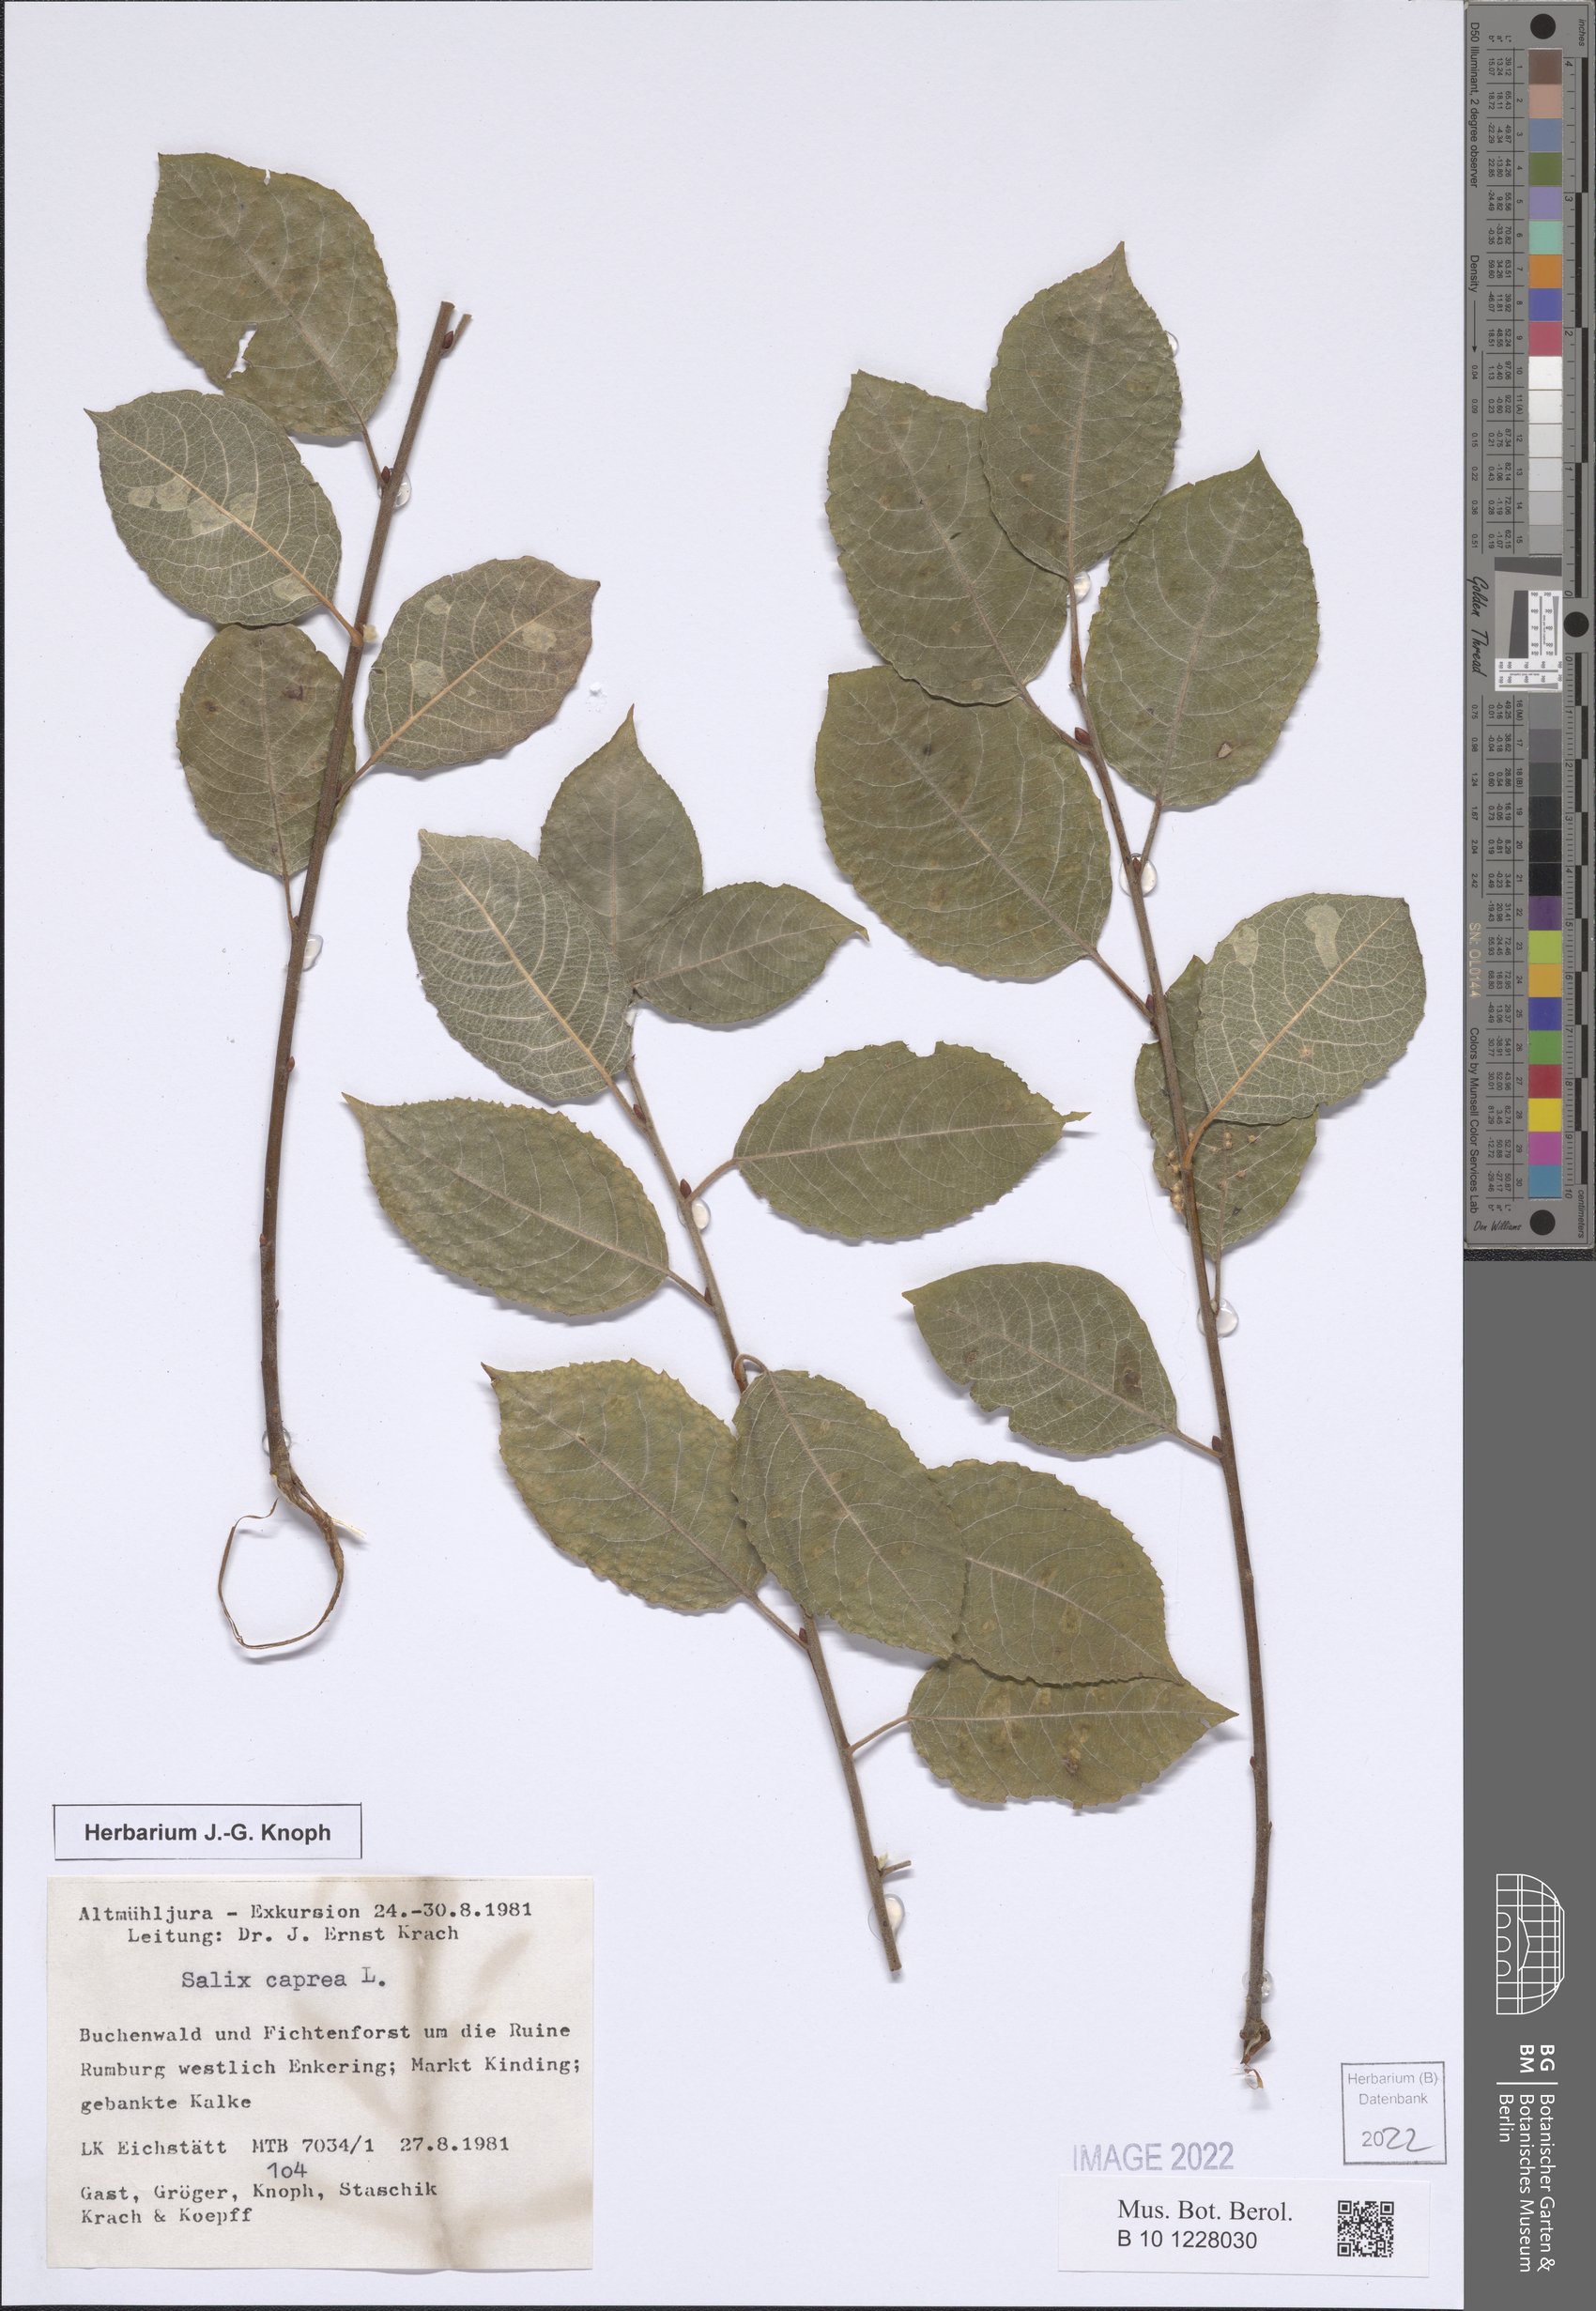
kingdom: Plantae
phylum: Tracheophyta
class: Magnoliopsida
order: Malpighiales
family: Salicaceae
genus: Salix
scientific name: Salix caprea
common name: Goat willow
